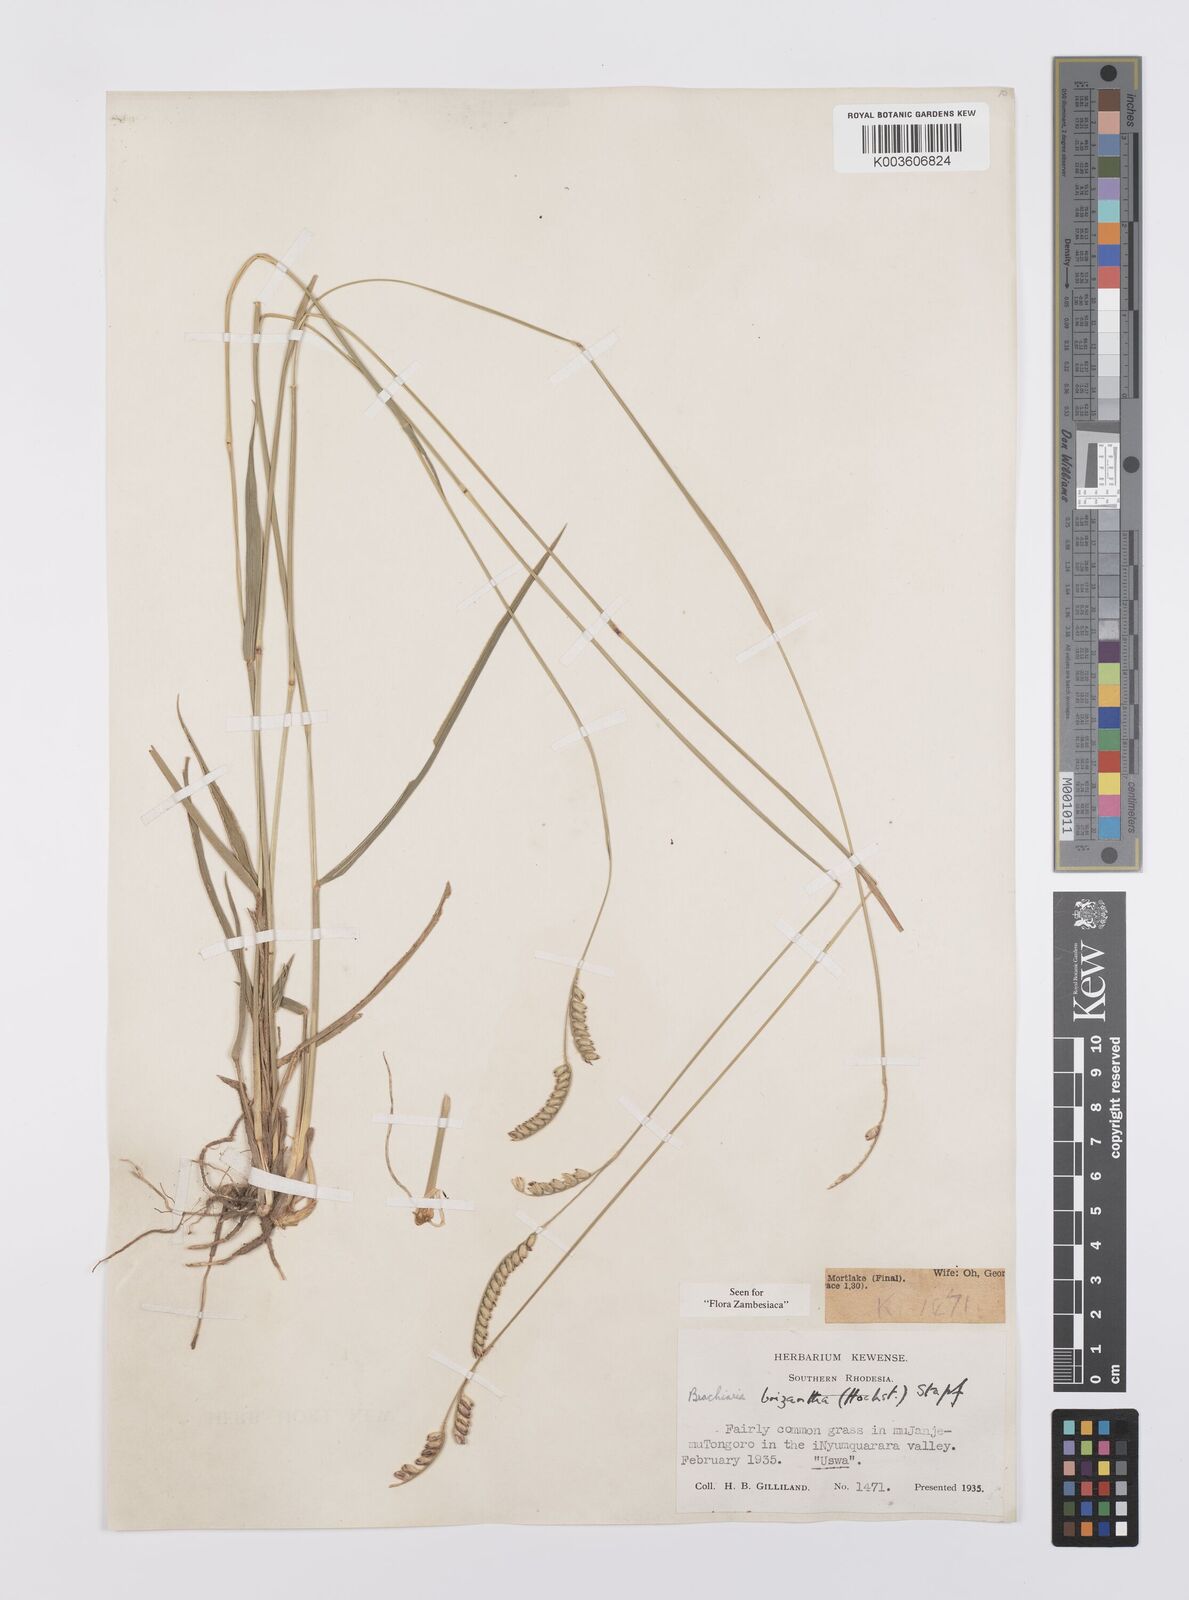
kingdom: Plantae
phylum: Tracheophyta
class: Liliopsida
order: Poales
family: Poaceae
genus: Urochloa
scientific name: Urochloa brizantha
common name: Palisade signalgrass
